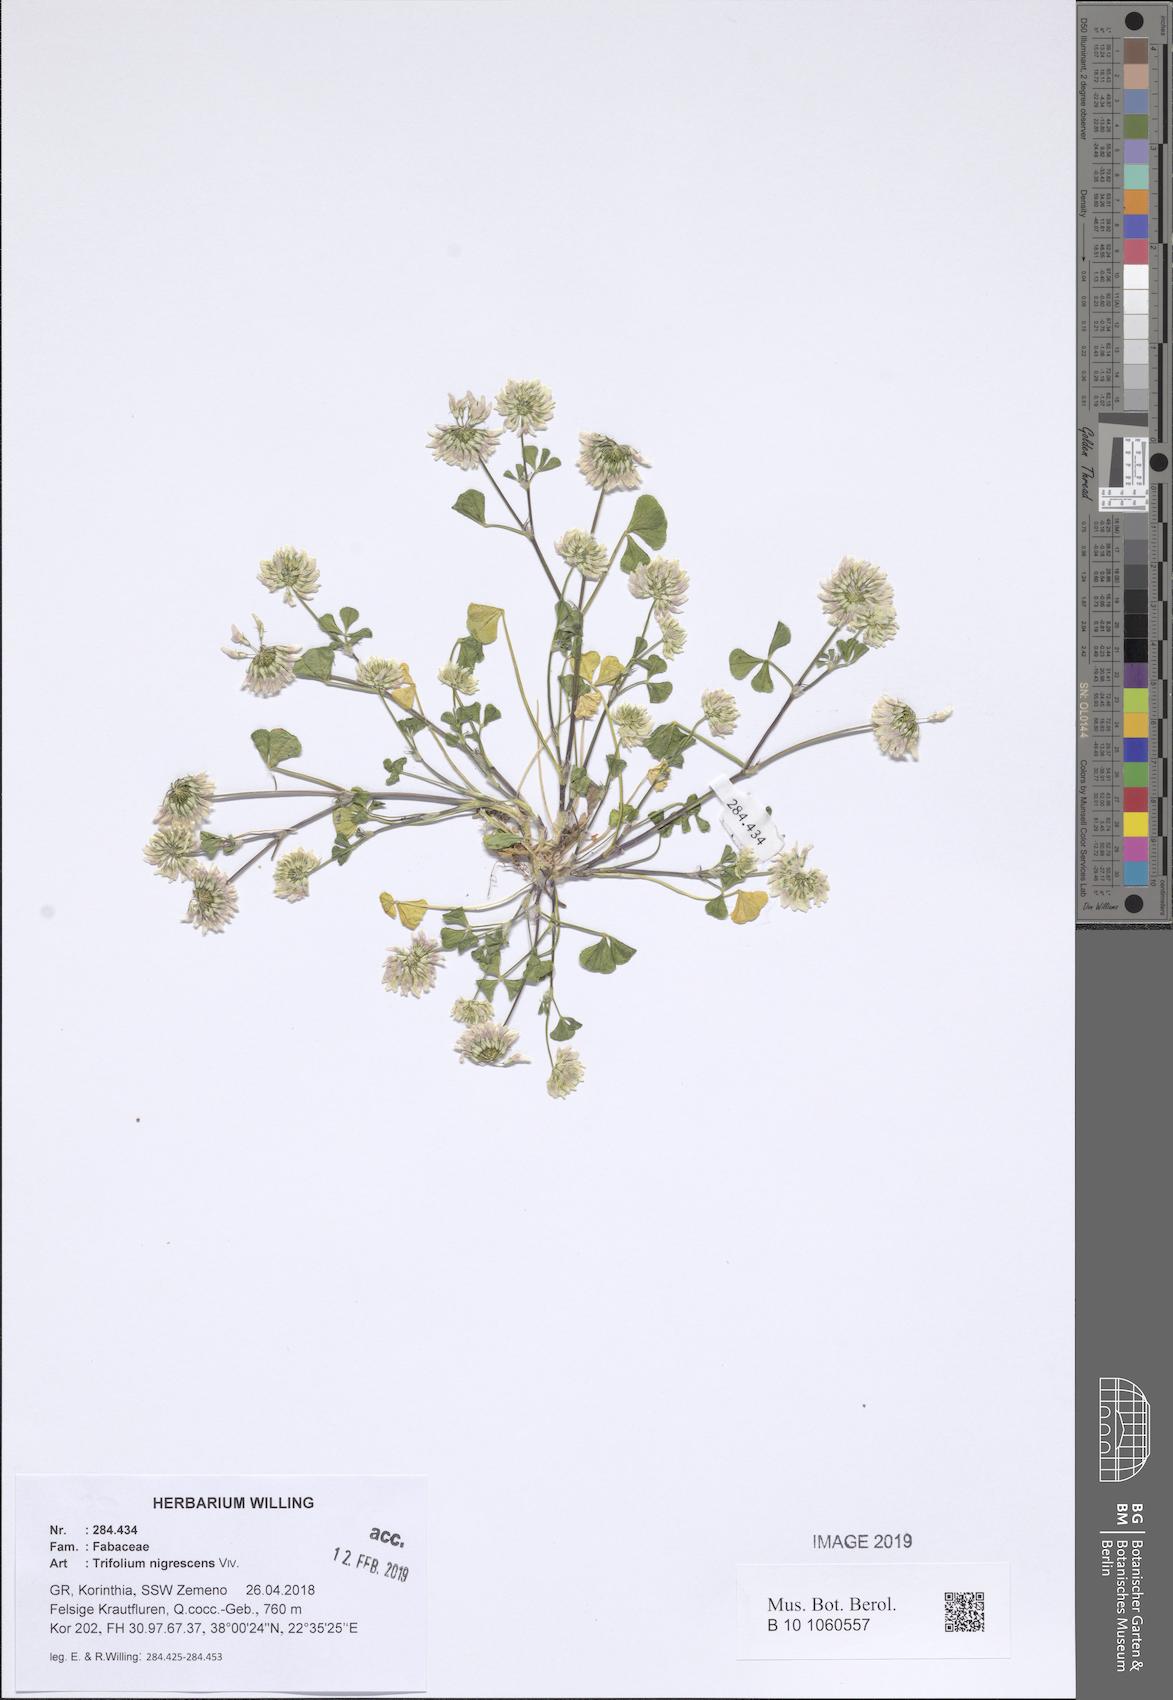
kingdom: Plantae
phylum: Tracheophyta
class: Magnoliopsida
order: Fabales
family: Fabaceae
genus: Trifolium
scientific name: Trifolium nigrescens
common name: Small white clover
